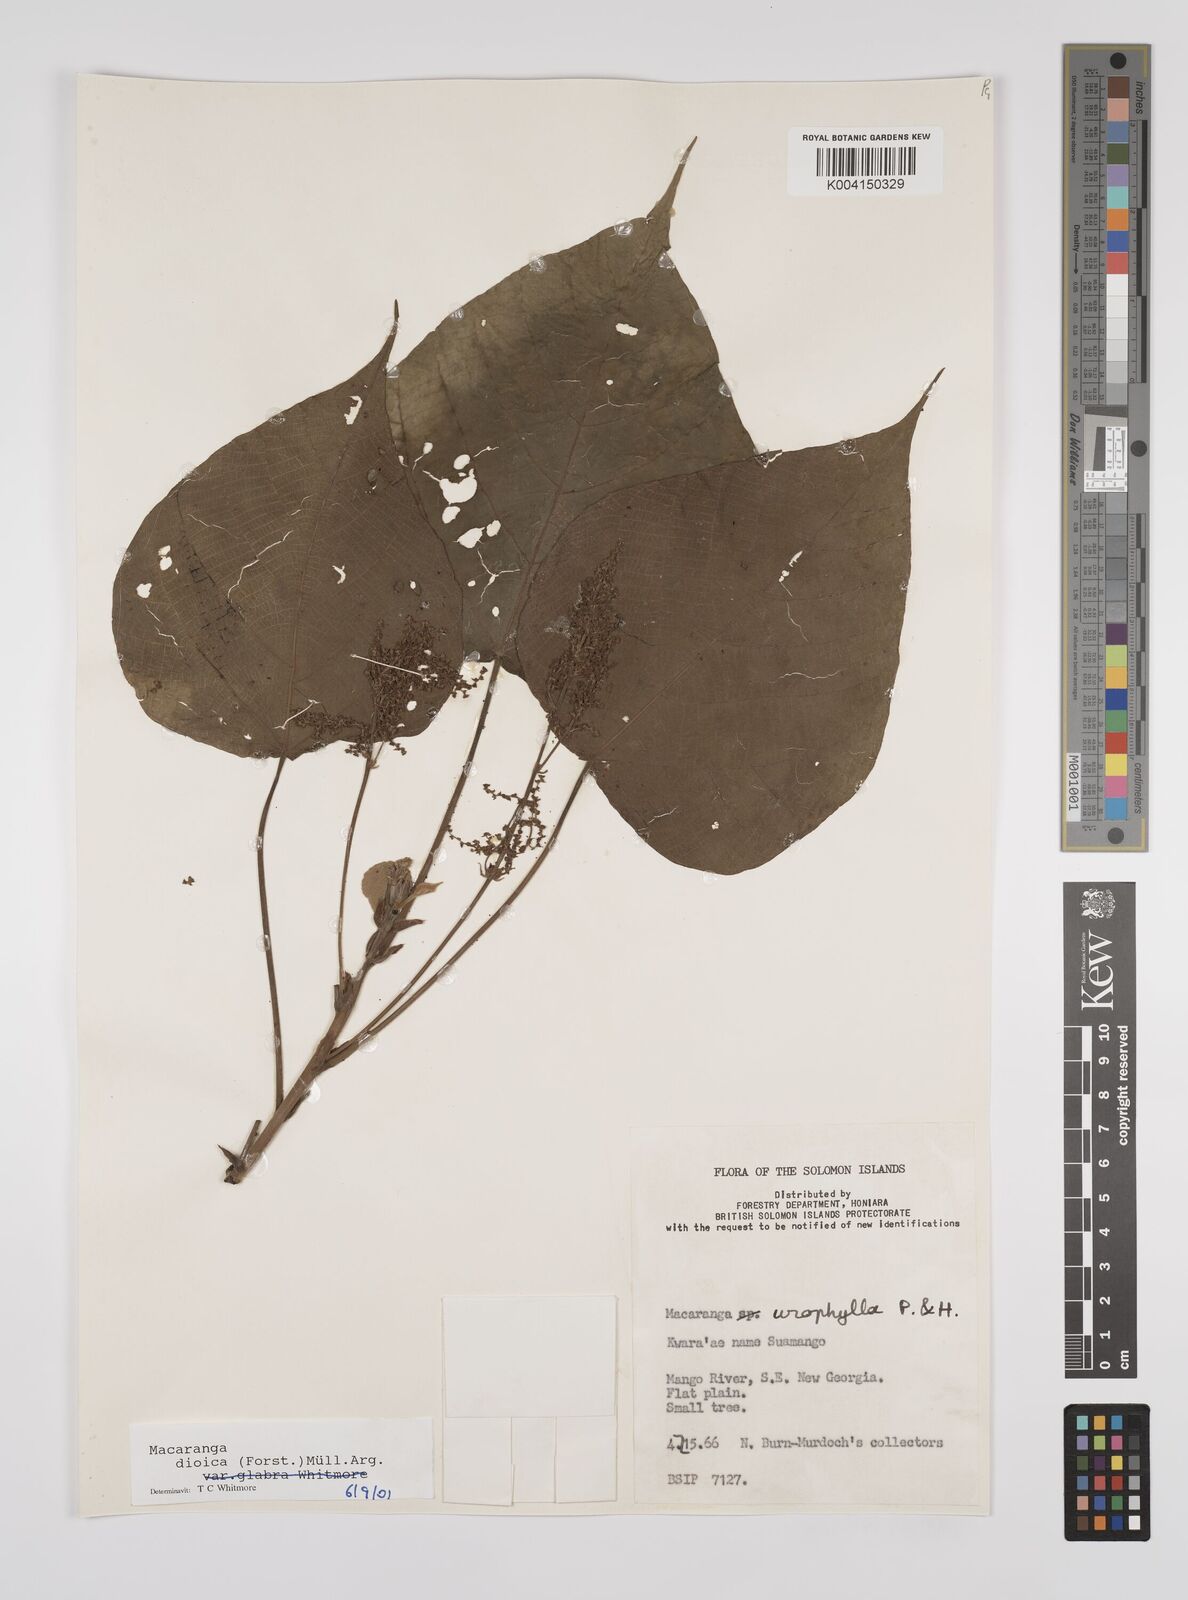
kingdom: Plantae
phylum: Tracheophyta
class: Magnoliopsida
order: Malpighiales
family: Euphorbiaceae
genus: Macaranga
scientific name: Macaranga dioica
